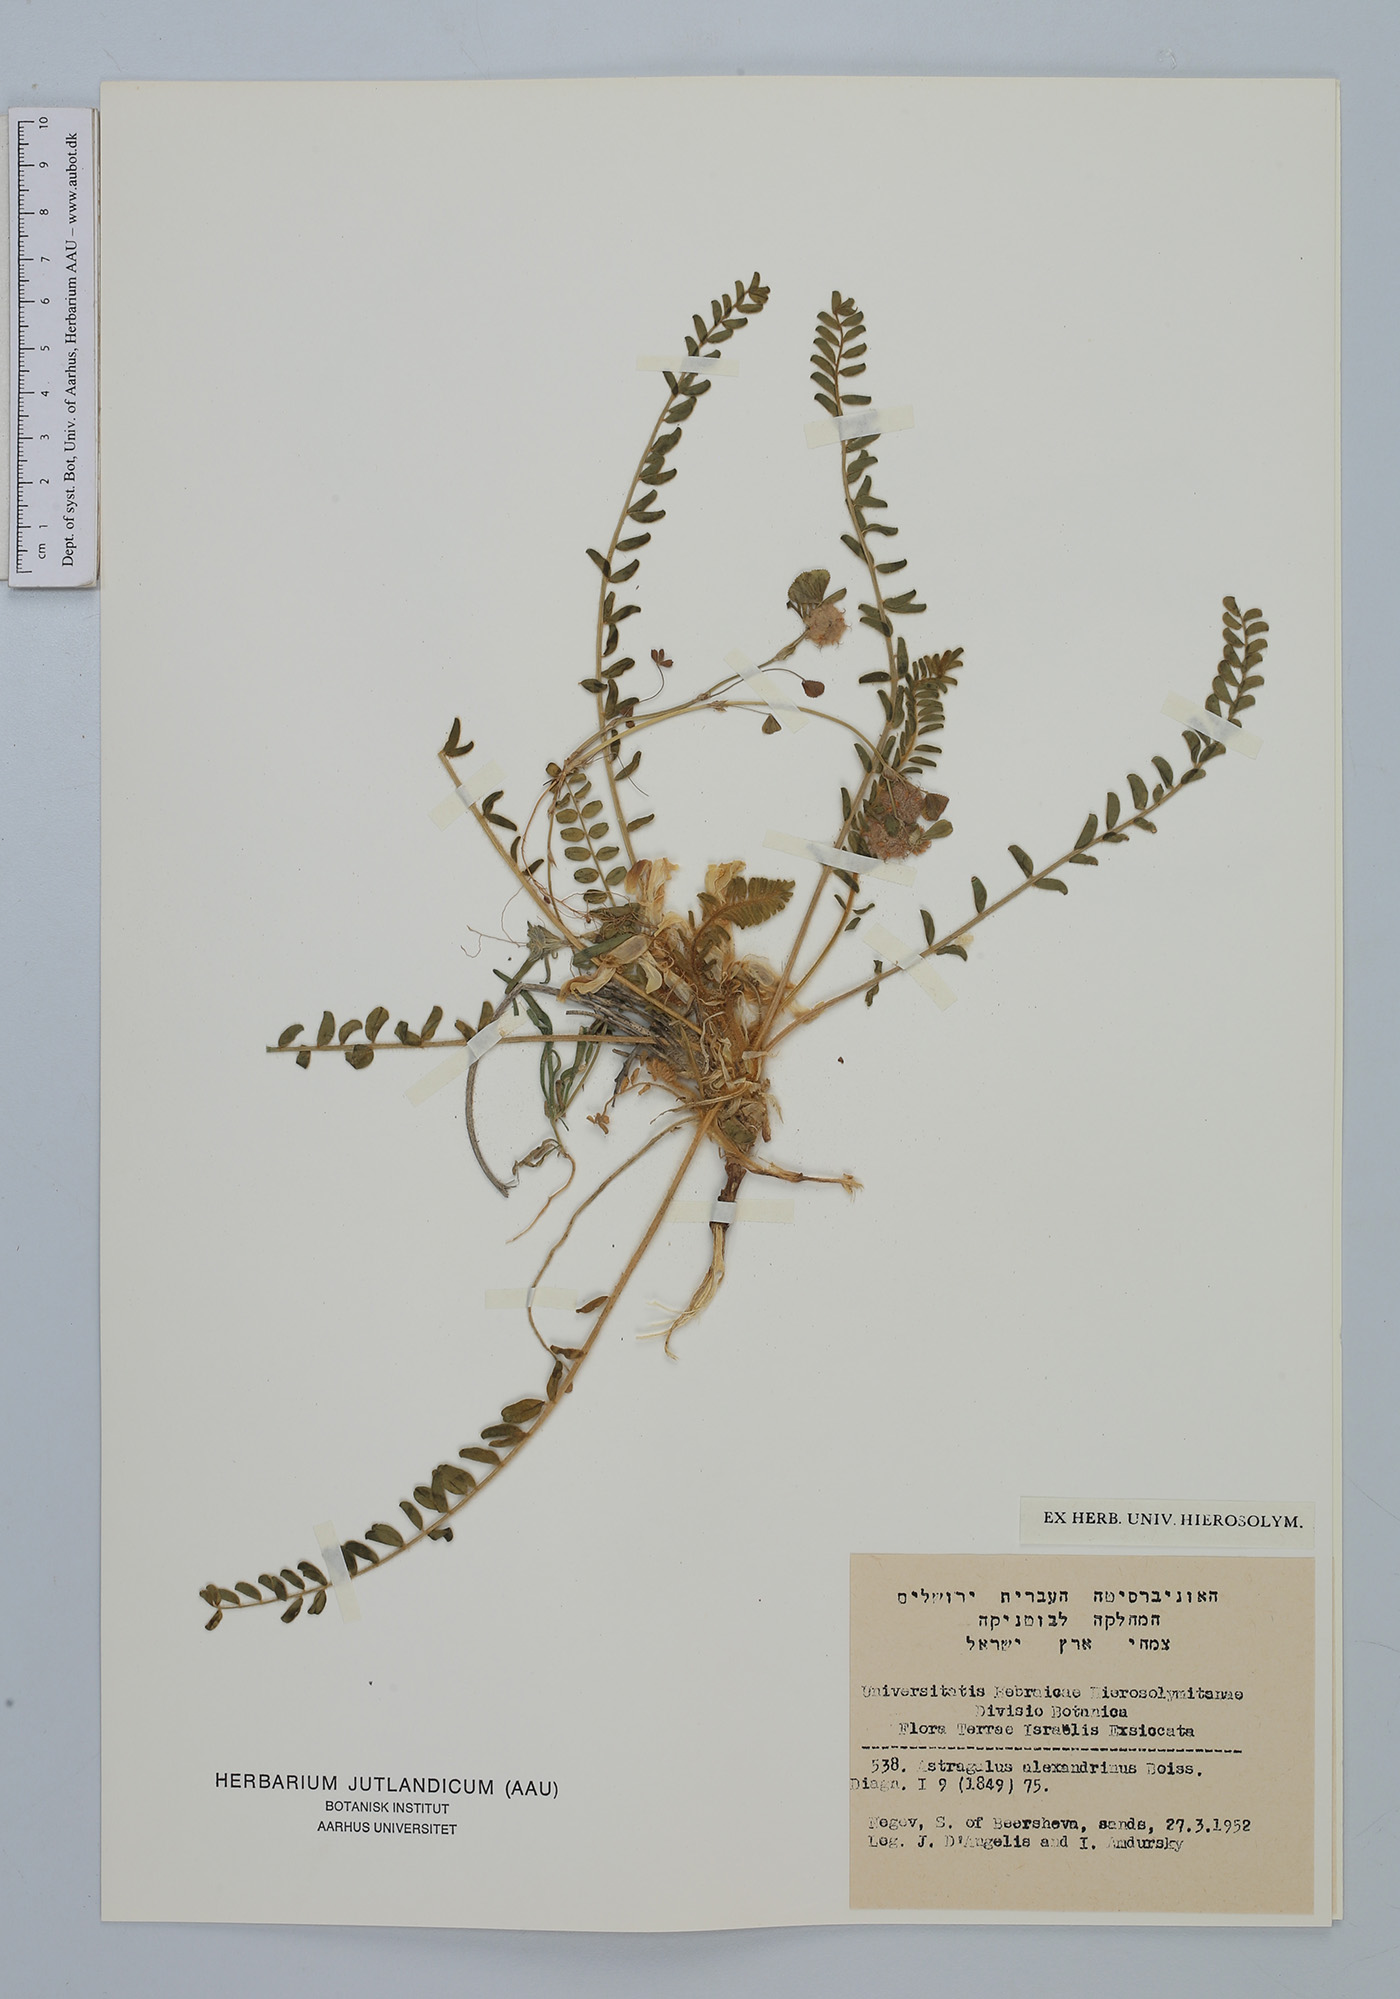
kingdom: Plantae
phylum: Tracheophyta
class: Magnoliopsida
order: Fabales
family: Fabaceae
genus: Astragalus
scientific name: Astragalus caprinus
